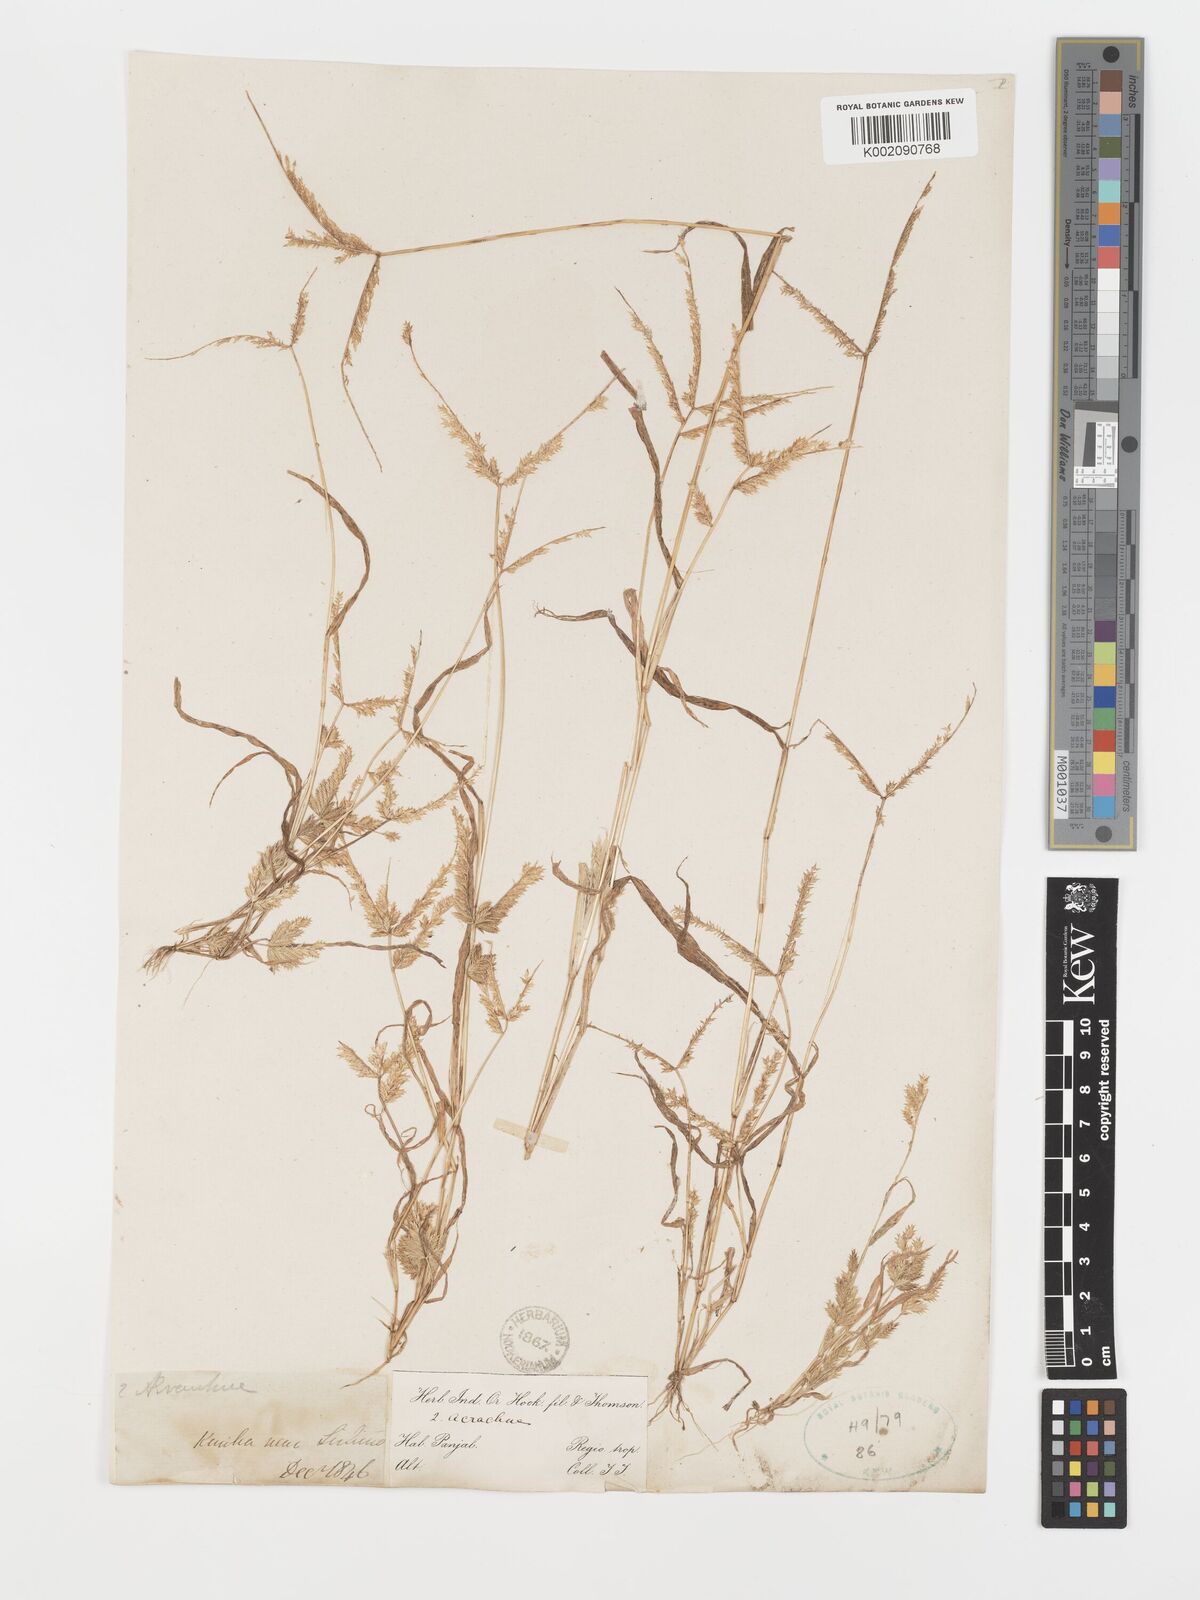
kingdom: Plantae
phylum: Tracheophyta
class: Liliopsida
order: Poales
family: Poaceae
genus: Acrachne
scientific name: Acrachne racemosa
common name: Goosegrass
